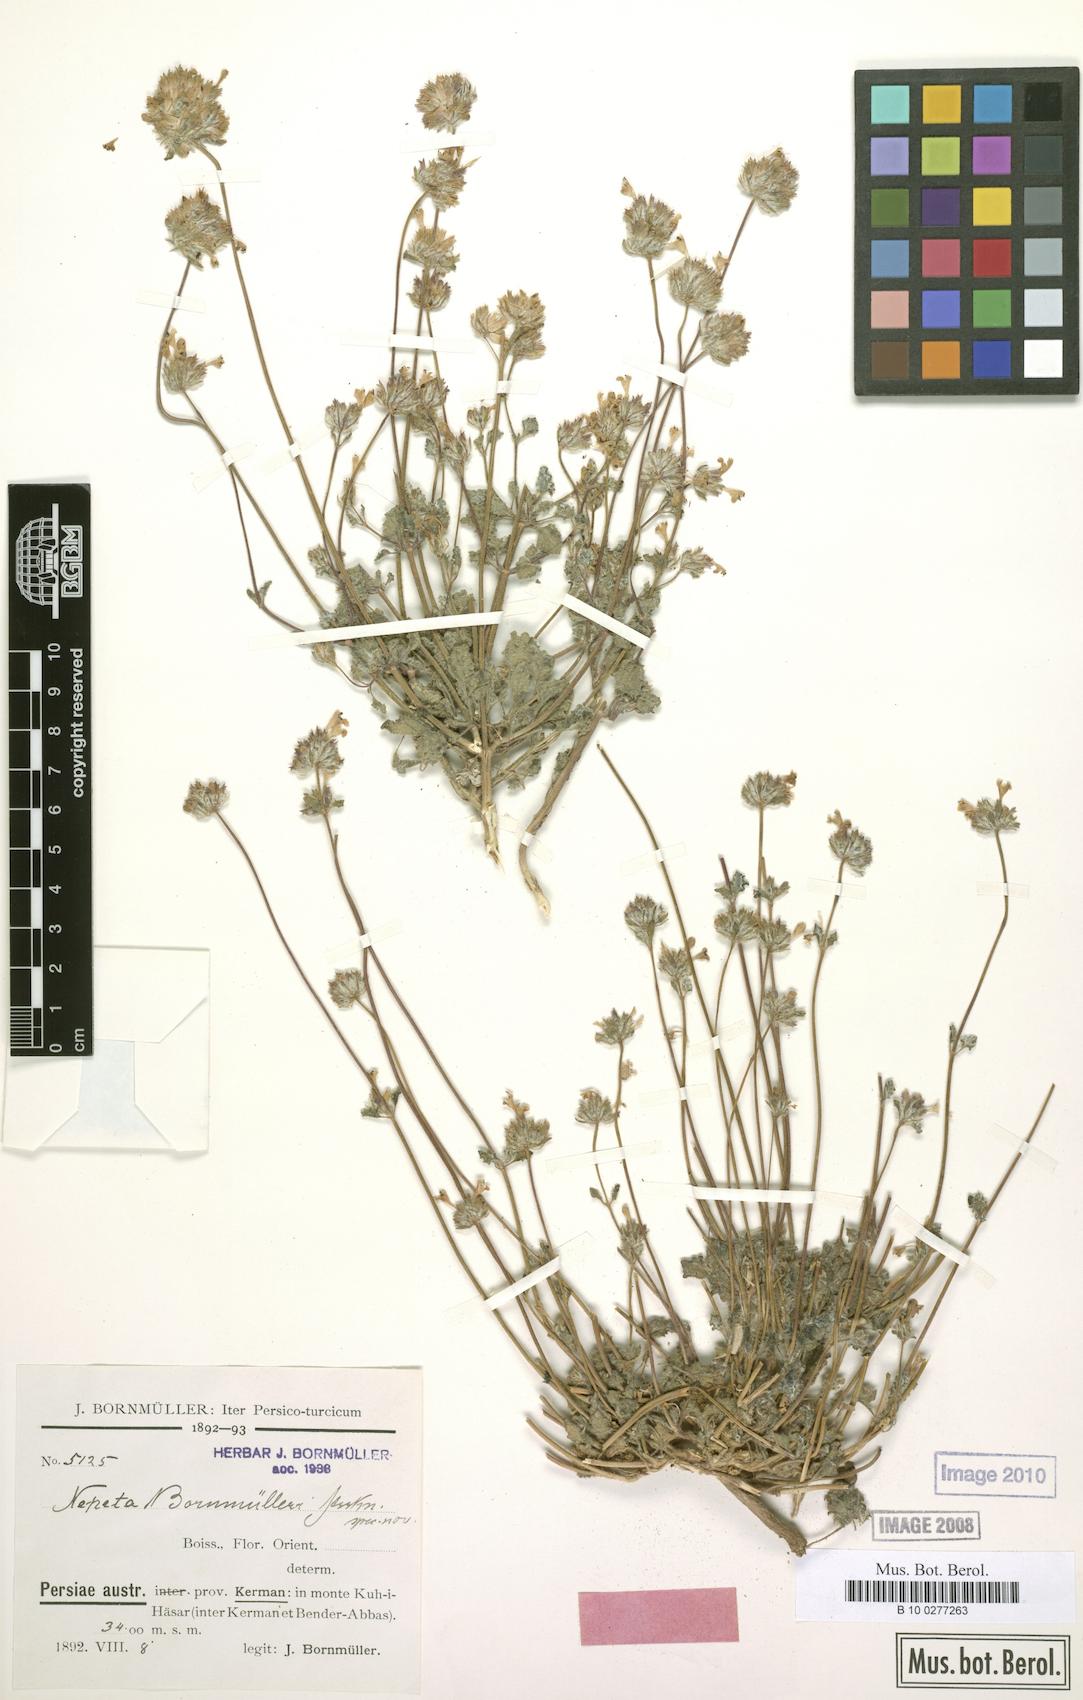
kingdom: Plantae
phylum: Tracheophyta
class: Magnoliopsida
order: Lamiales
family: Lamiaceae
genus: Nepeta
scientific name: Nepeta bornmuelleri
